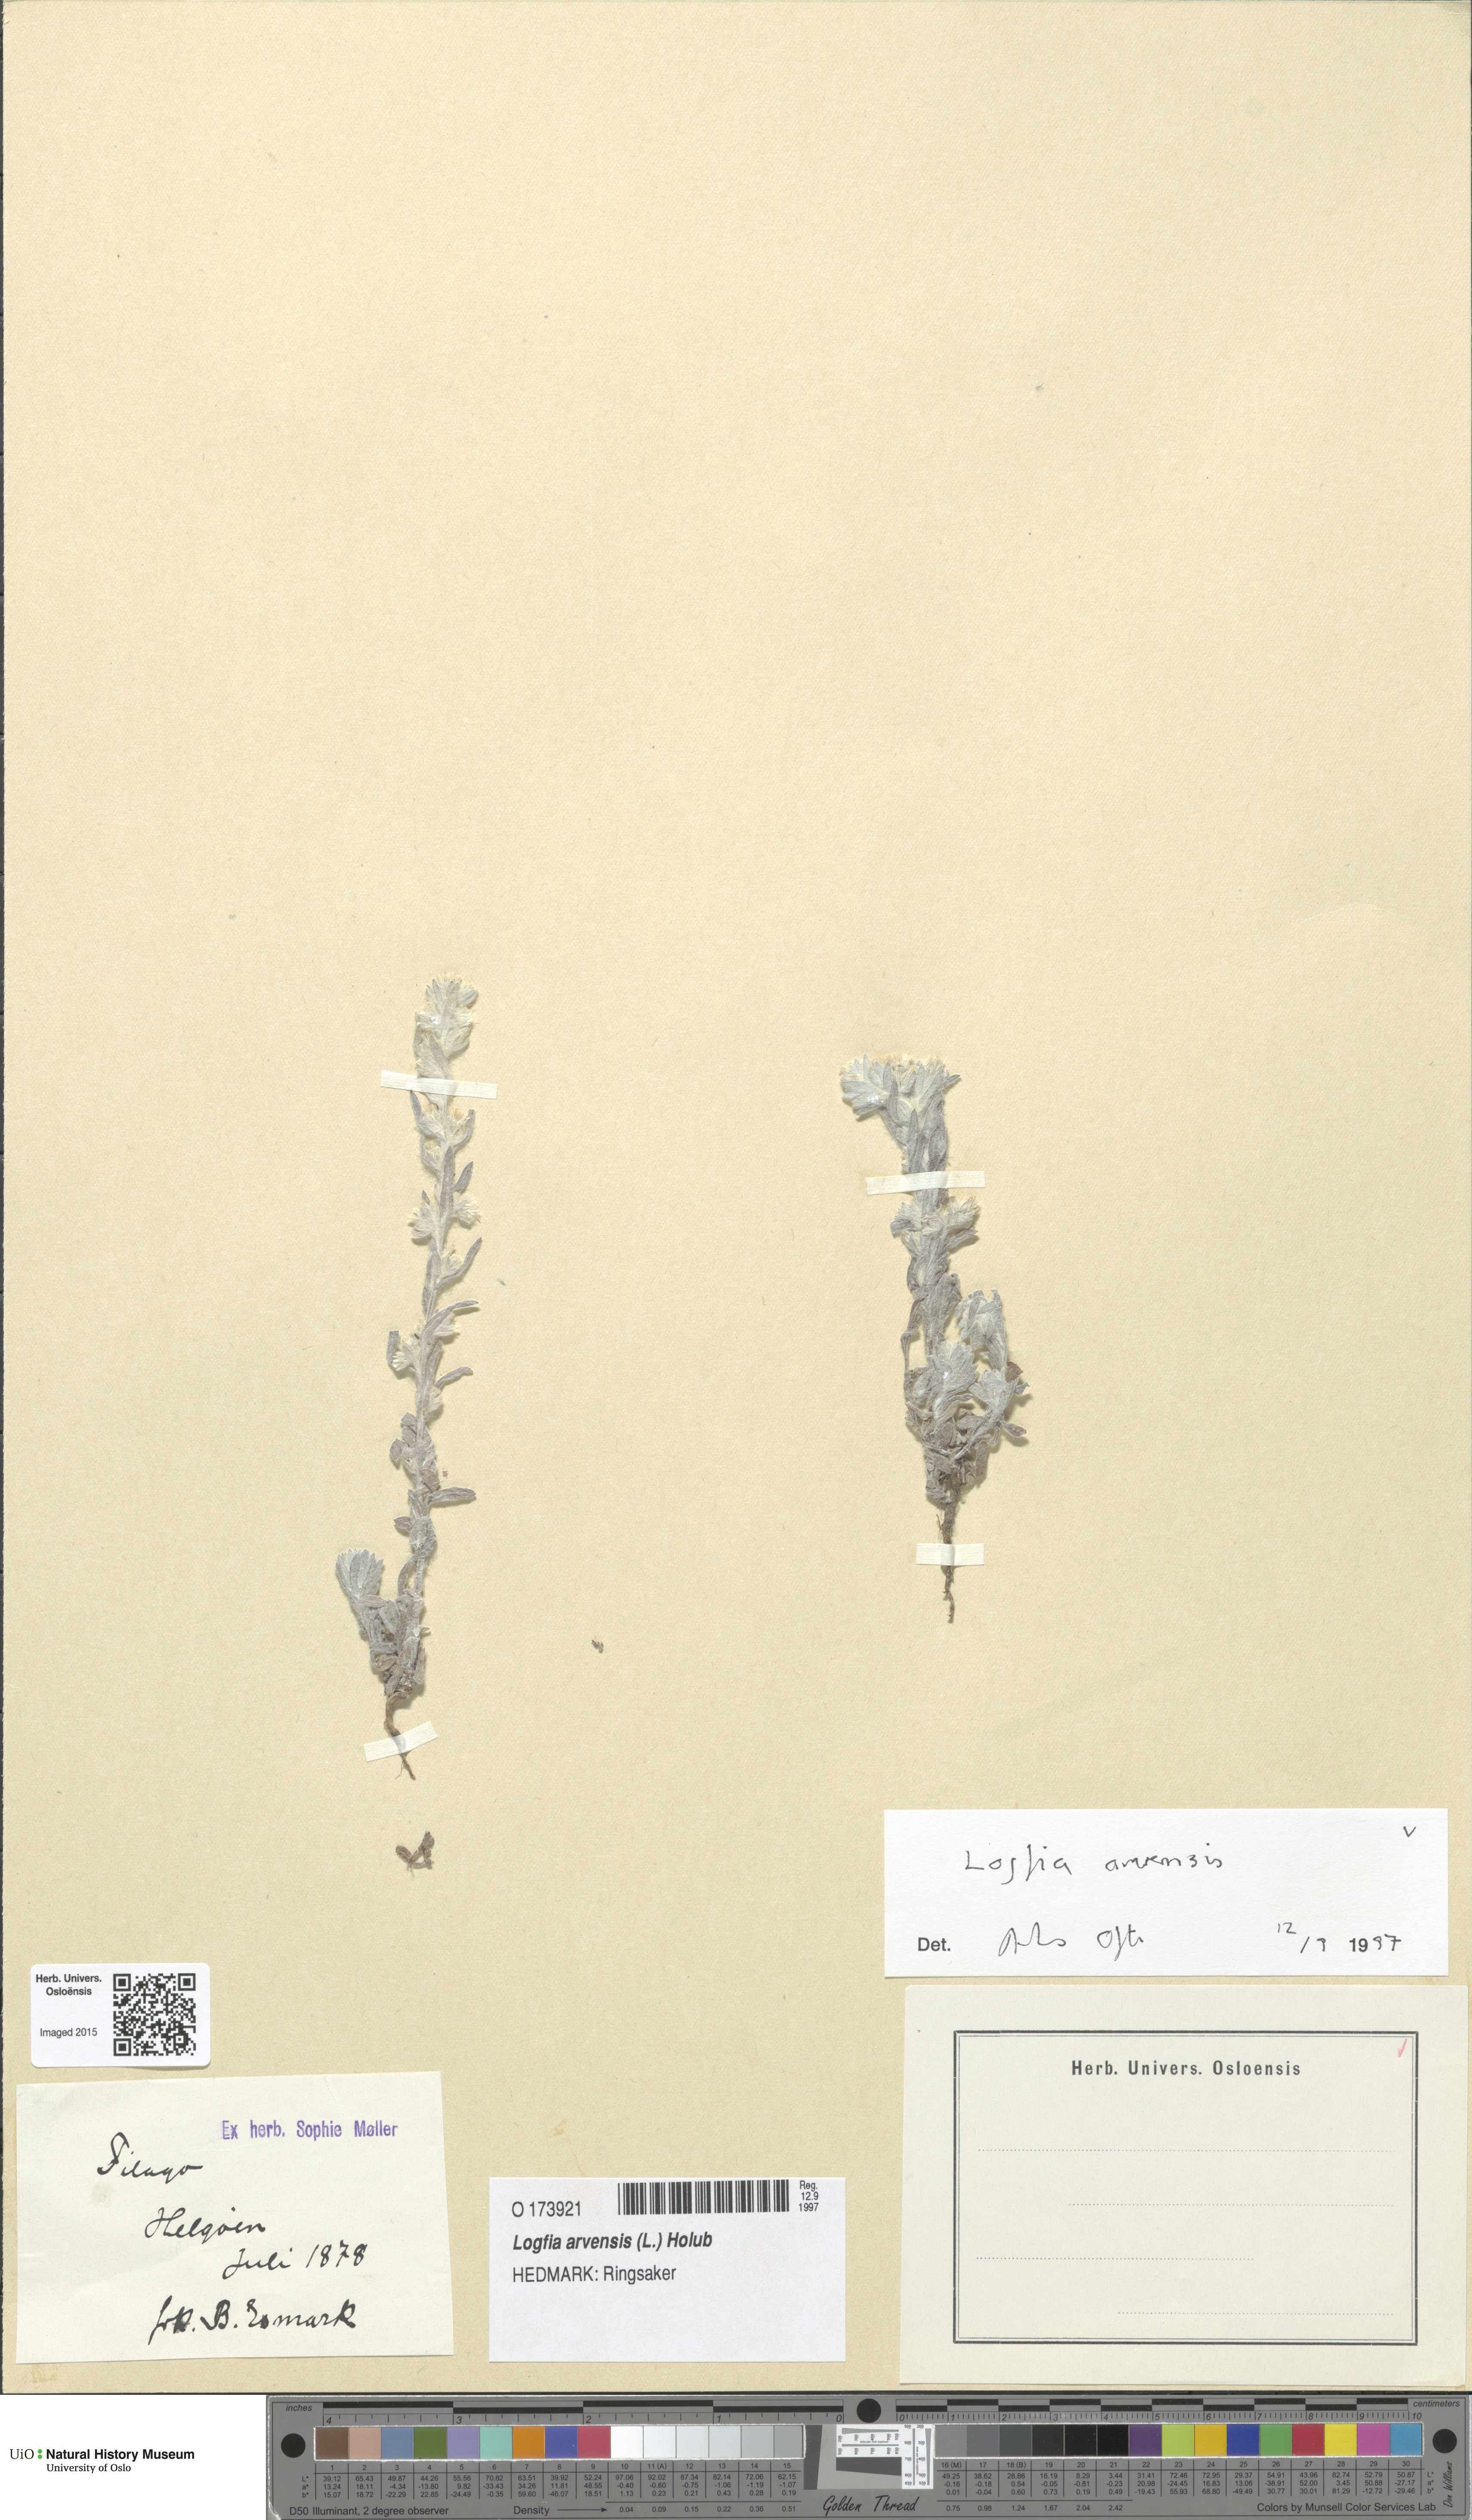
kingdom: Plantae
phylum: Tracheophyta
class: Magnoliopsida
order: Asterales
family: Asteraceae
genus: Filago
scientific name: Filago arvensis
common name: Field cudweed
